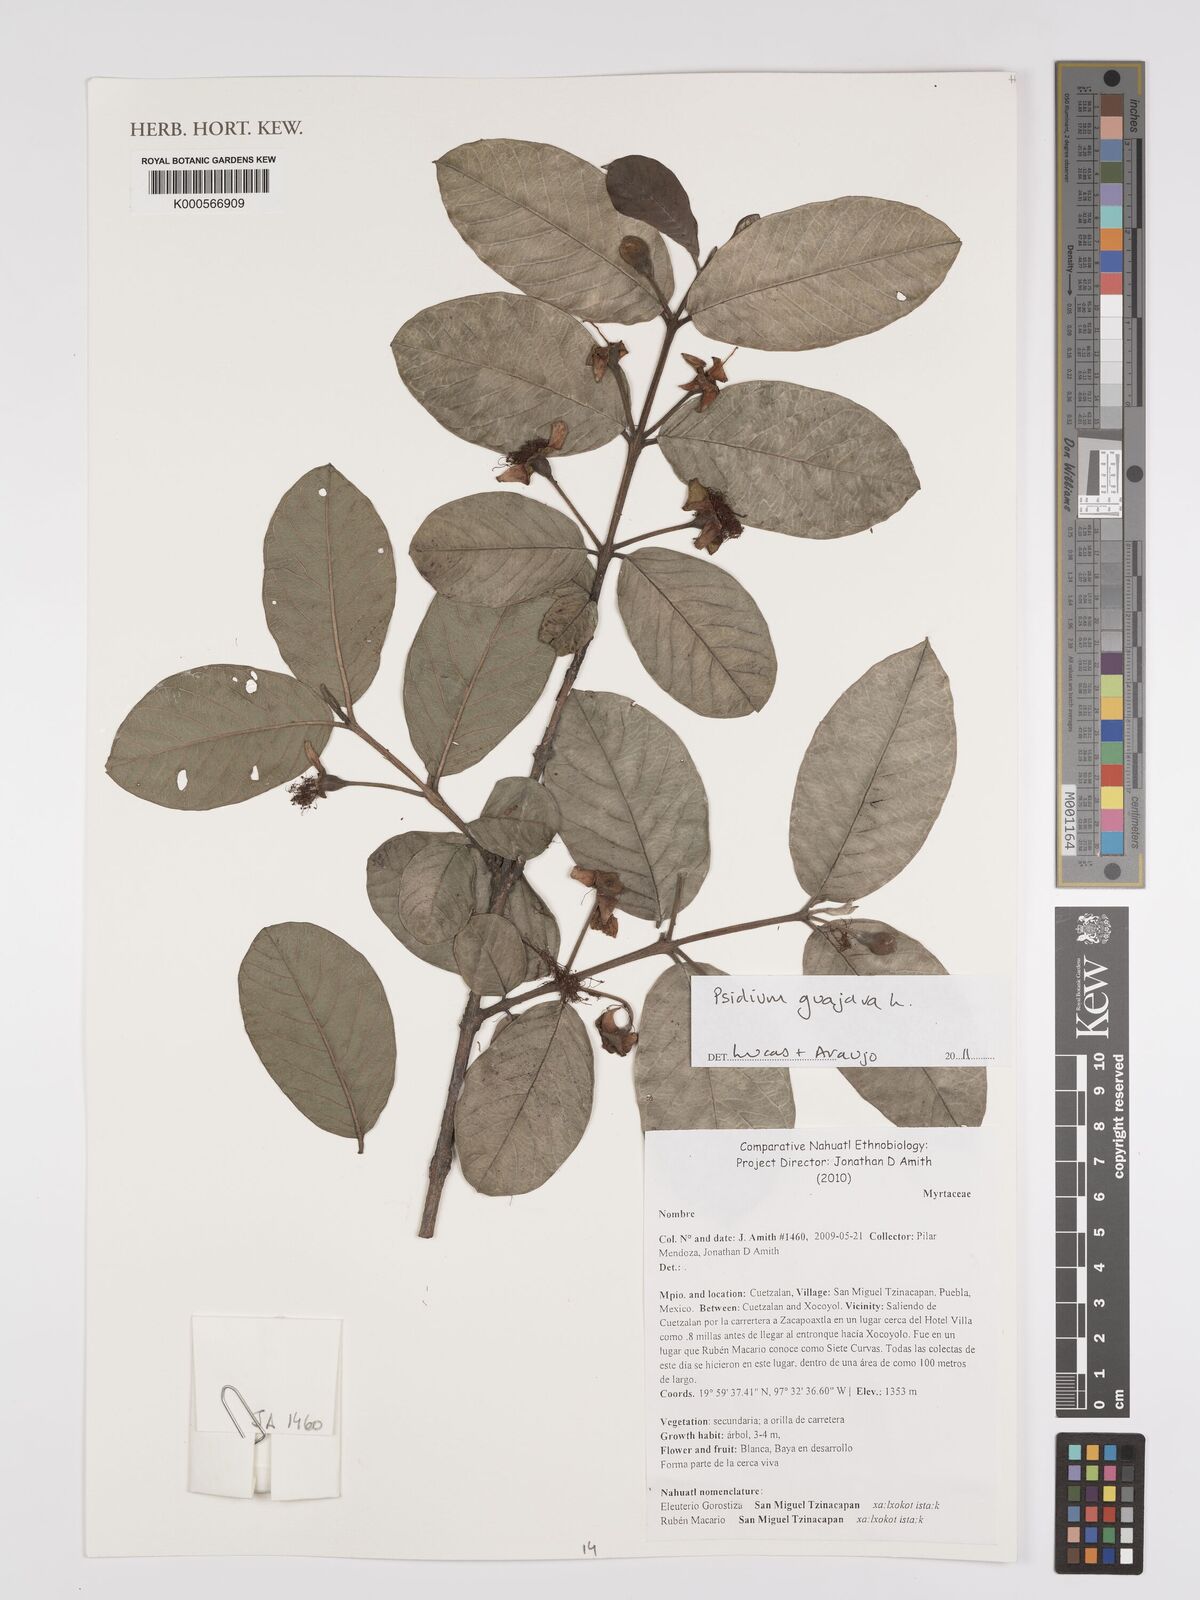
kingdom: Plantae
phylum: Tracheophyta
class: Magnoliopsida
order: Myrtales
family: Myrtaceae
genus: Psidium
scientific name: Psidium guajava
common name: Guava
